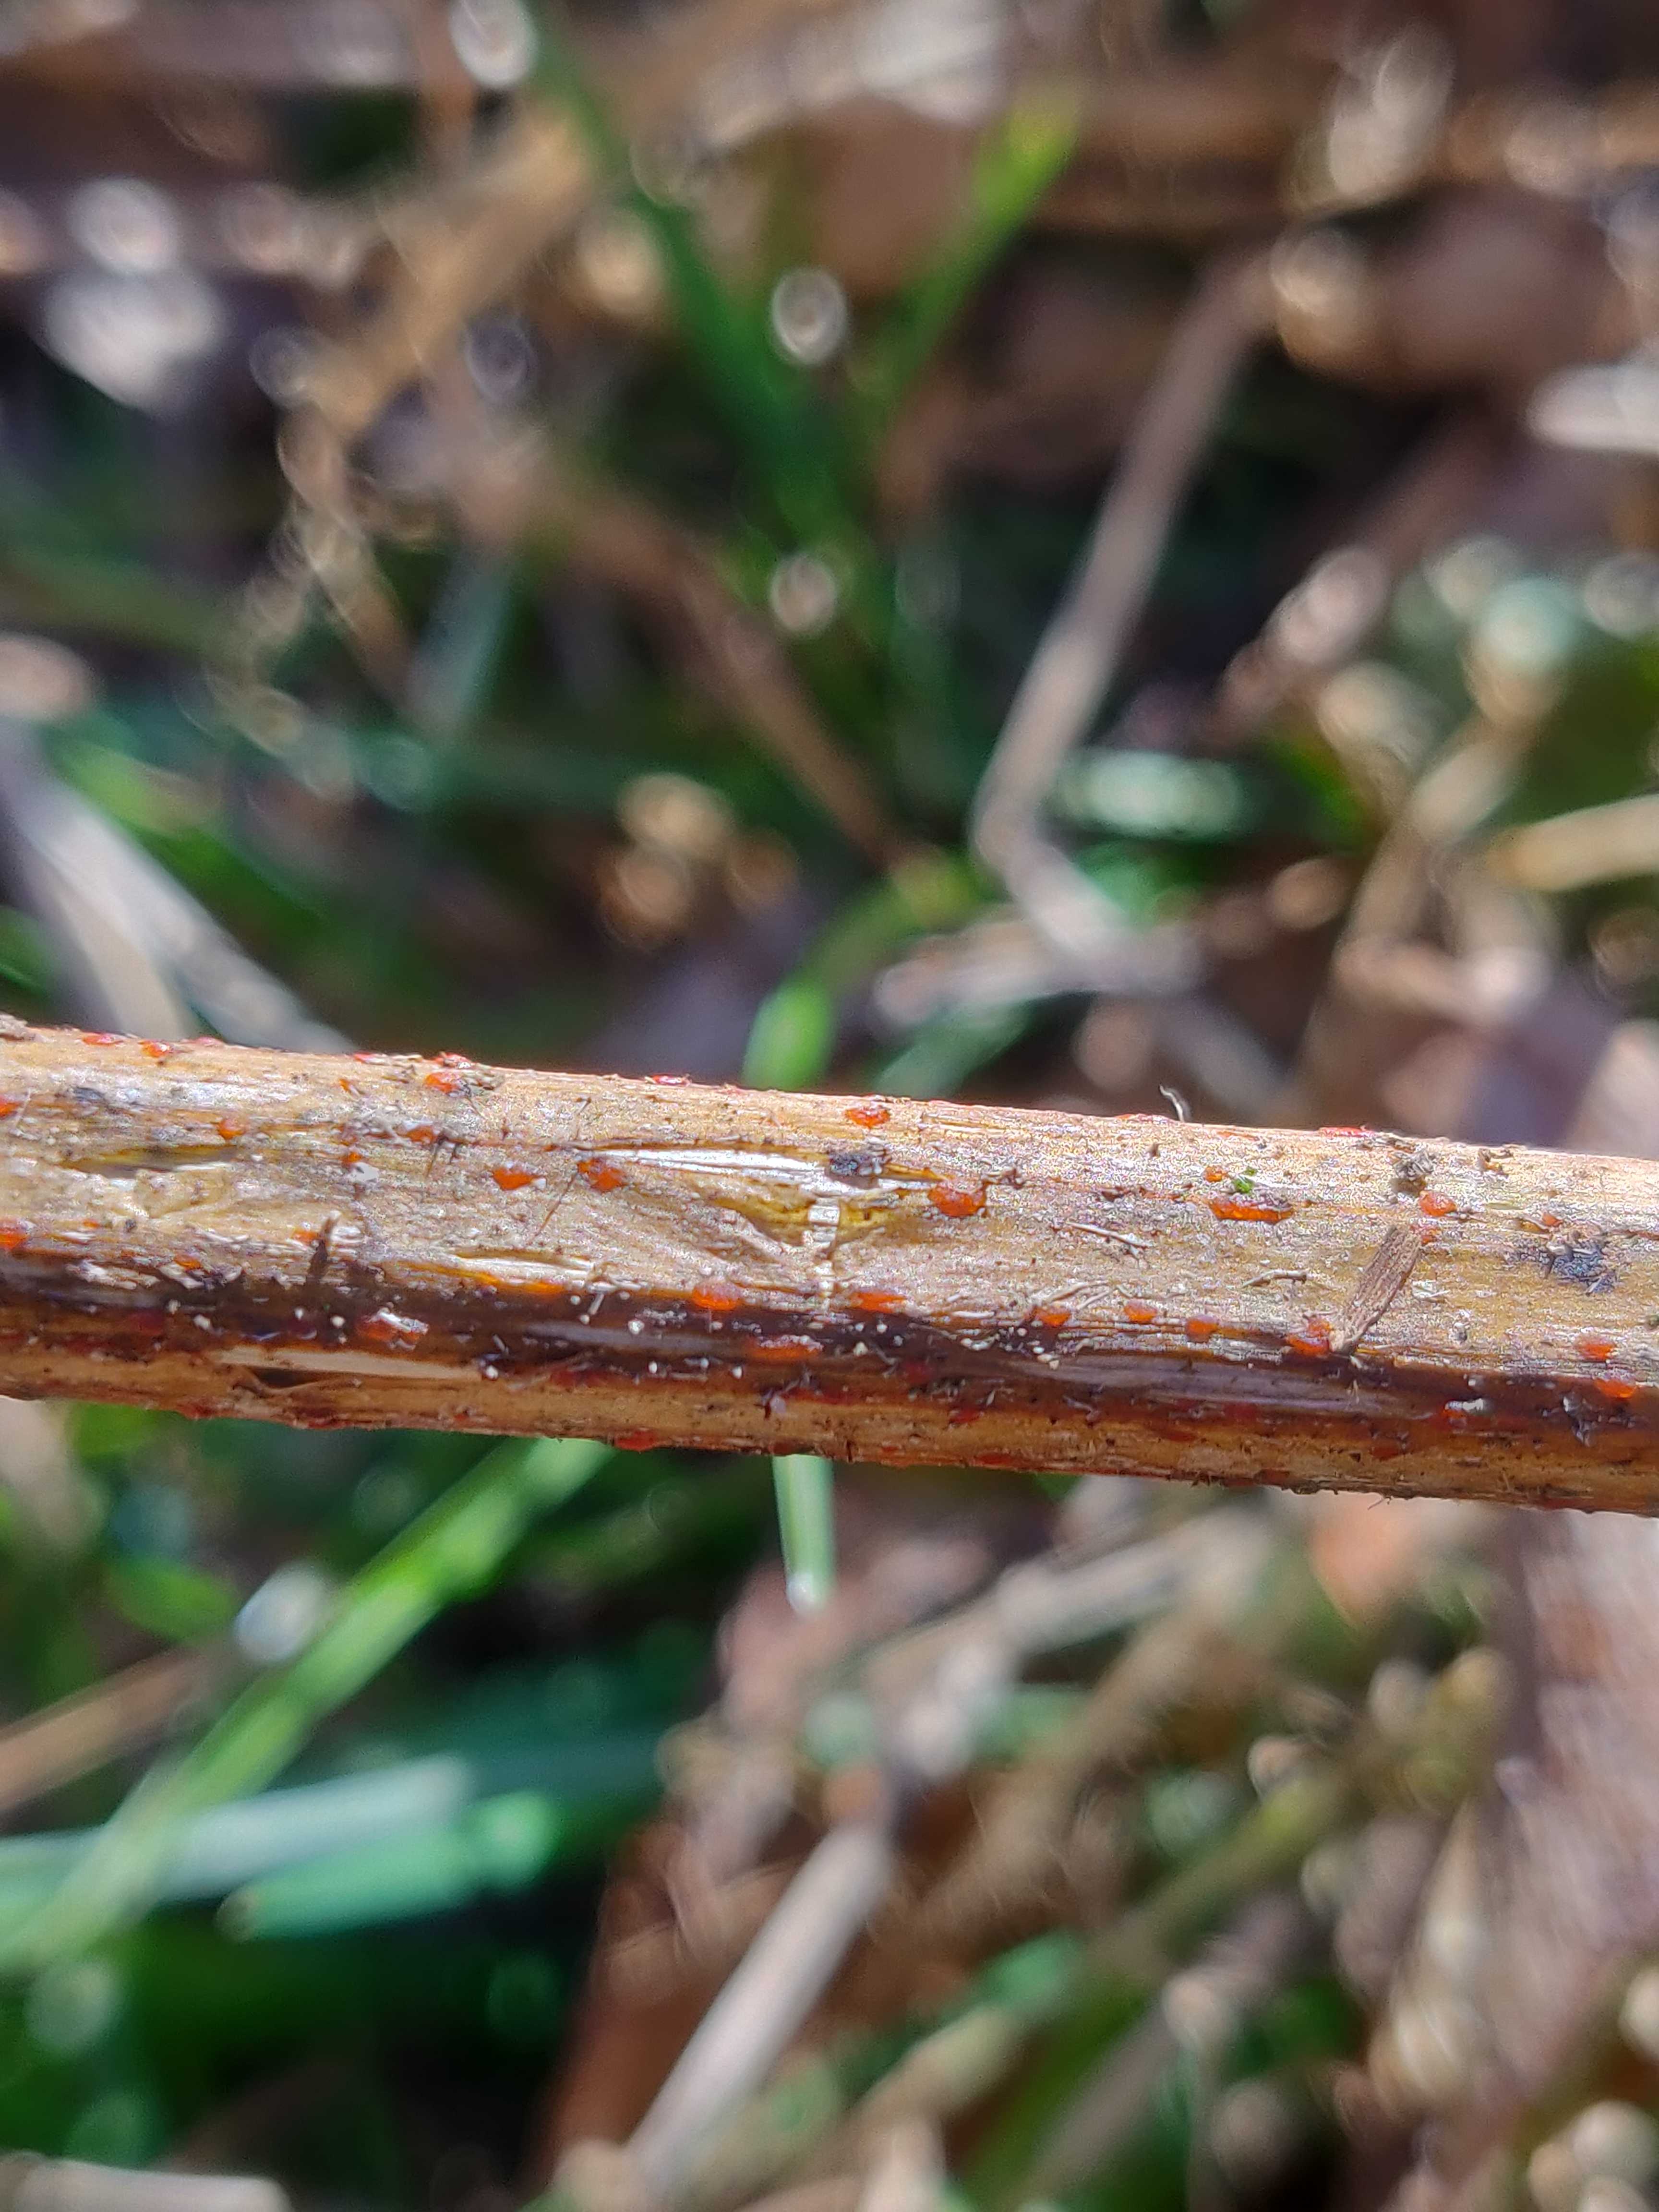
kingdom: Fungi
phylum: Ascomycota
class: Leotiomycetes
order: Helotiales
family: Calloriaceae
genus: Calloria
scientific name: Calloria urticae
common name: nælde-orangeskive
